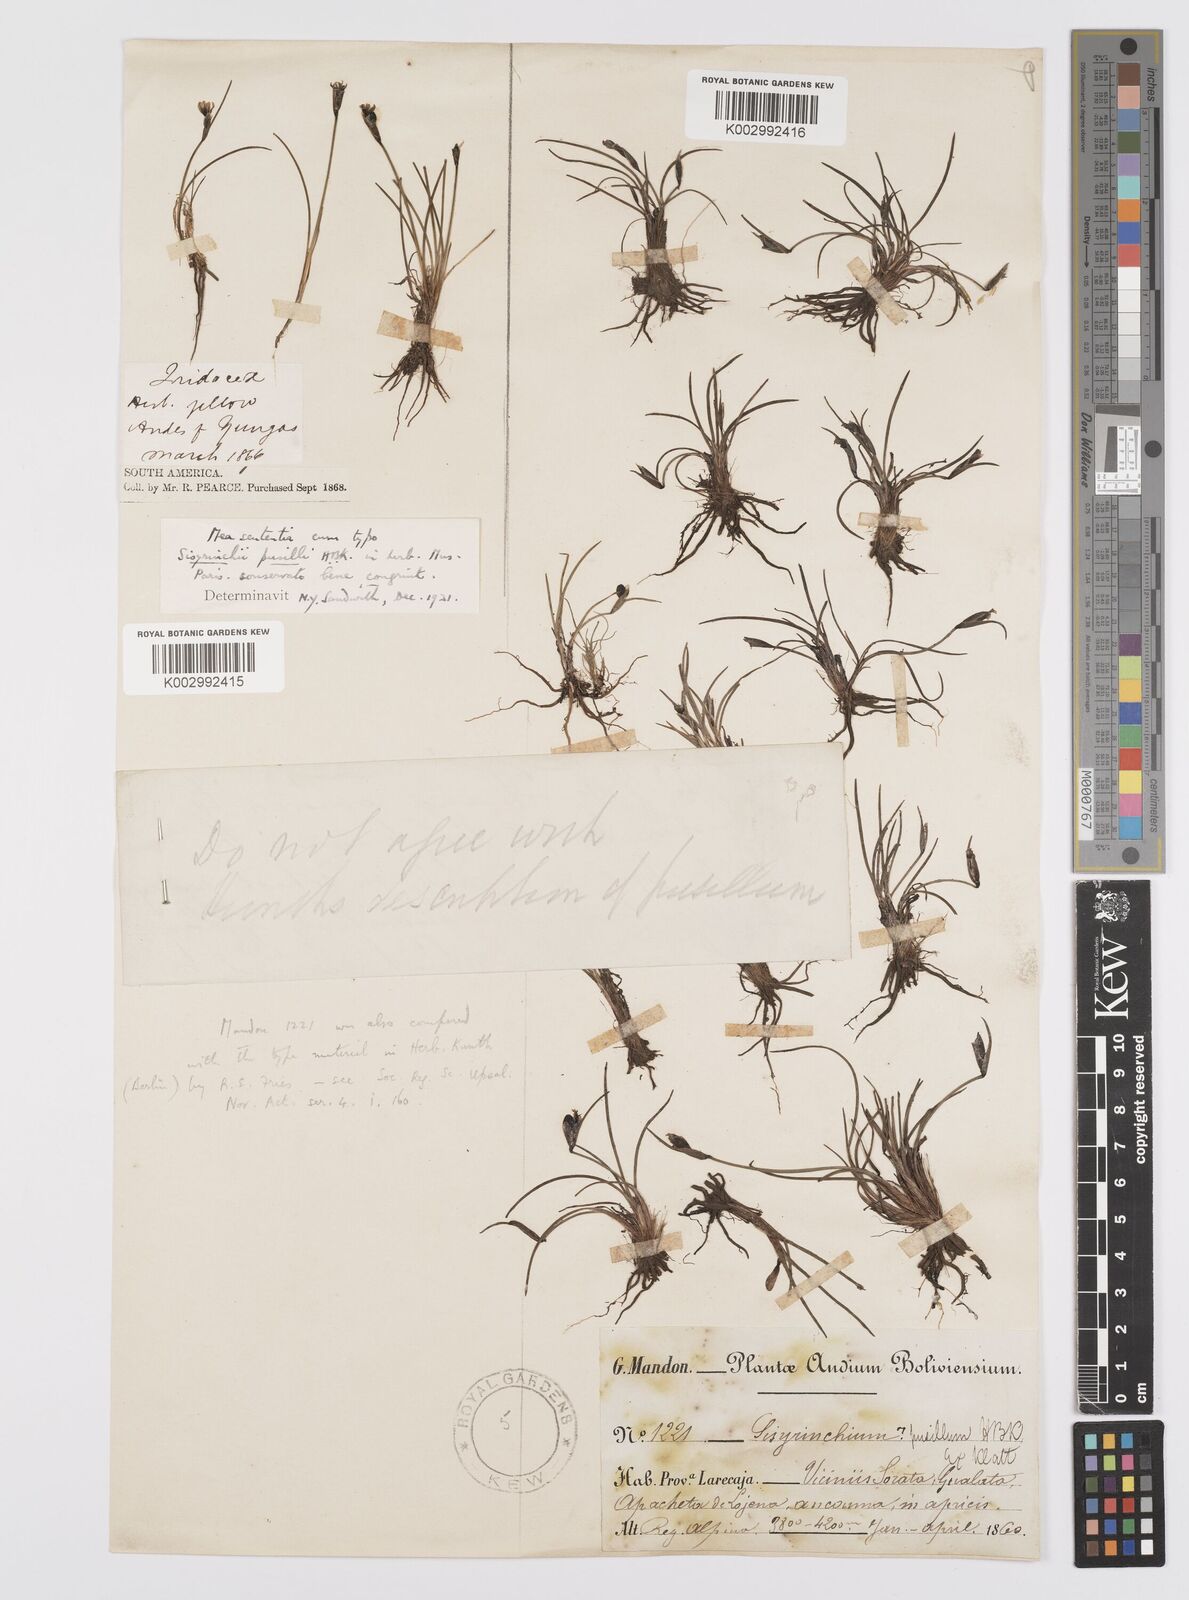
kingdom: Plantae
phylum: Tracheophyta
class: Liliopsida
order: Asparagales
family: Iridaceae
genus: Sisyrinchium
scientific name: Sisyrinchium pusillum
